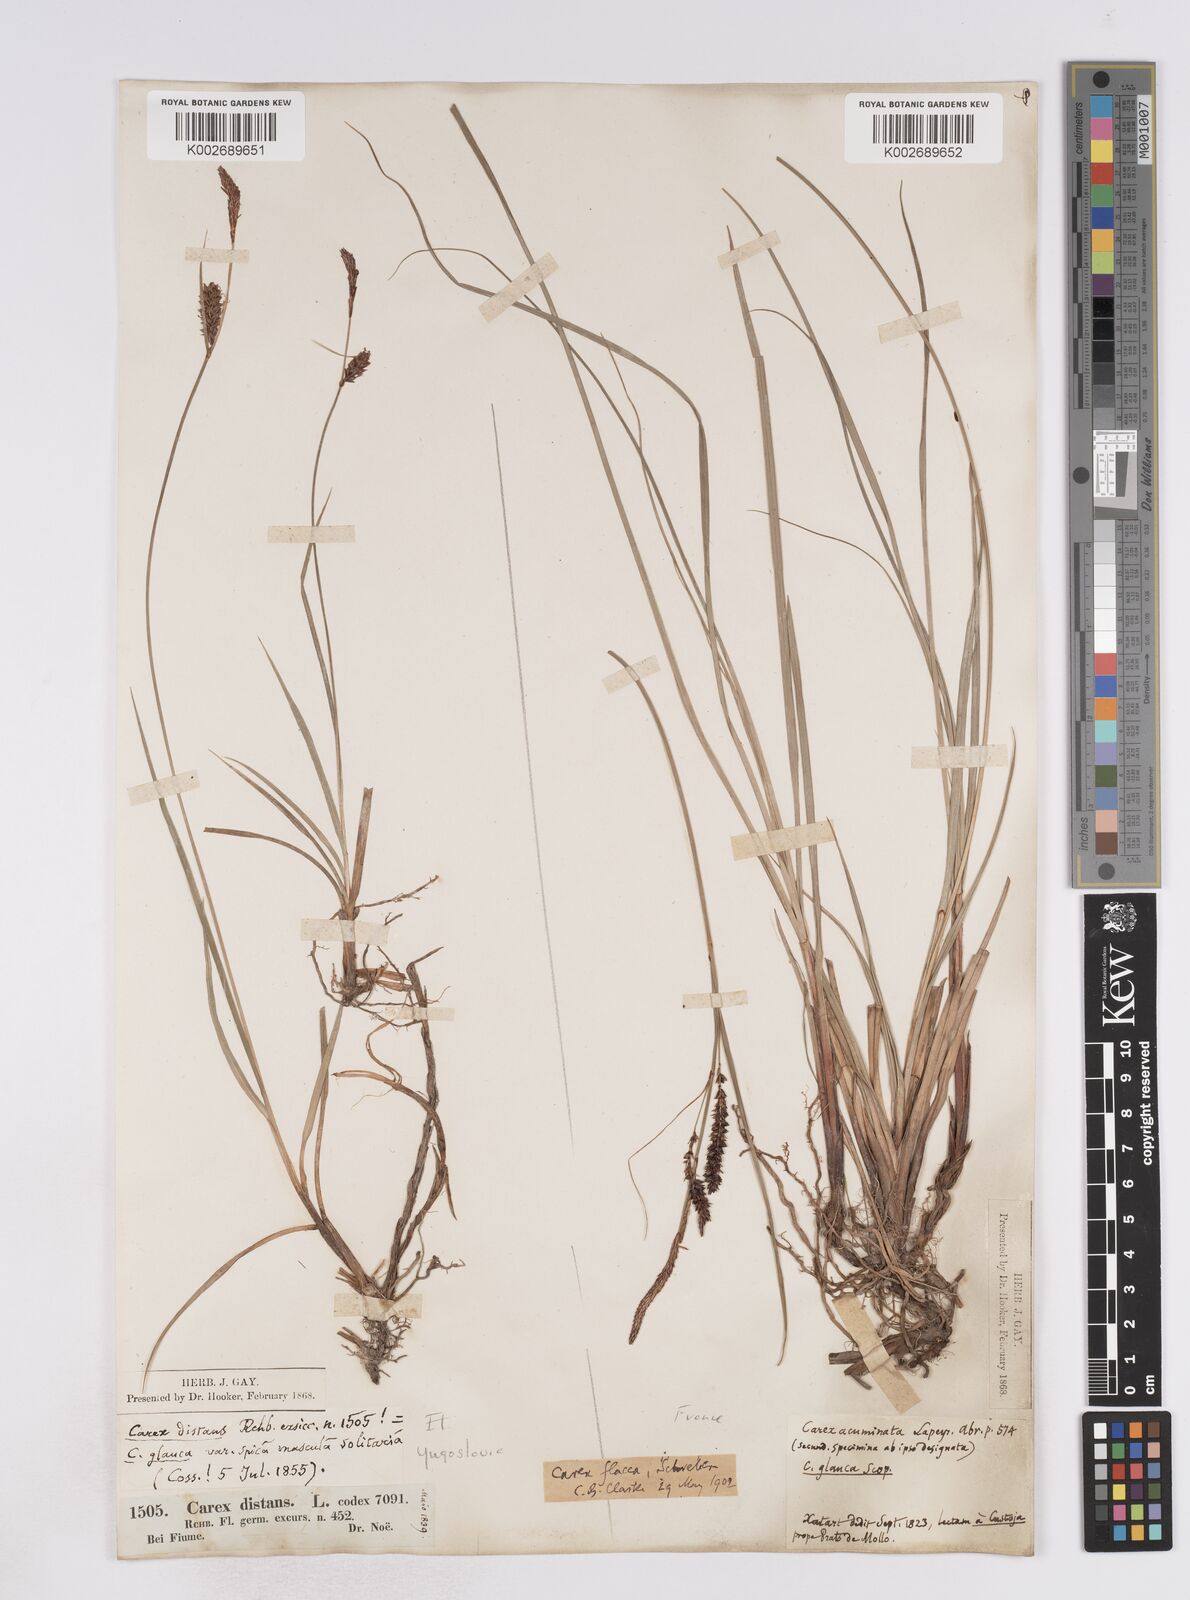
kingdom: Plantae
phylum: Tracheophyta
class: Liliopsida
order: Poales
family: Cyperaceae
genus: Carex
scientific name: Carex flacca
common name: Glaucous sedge
